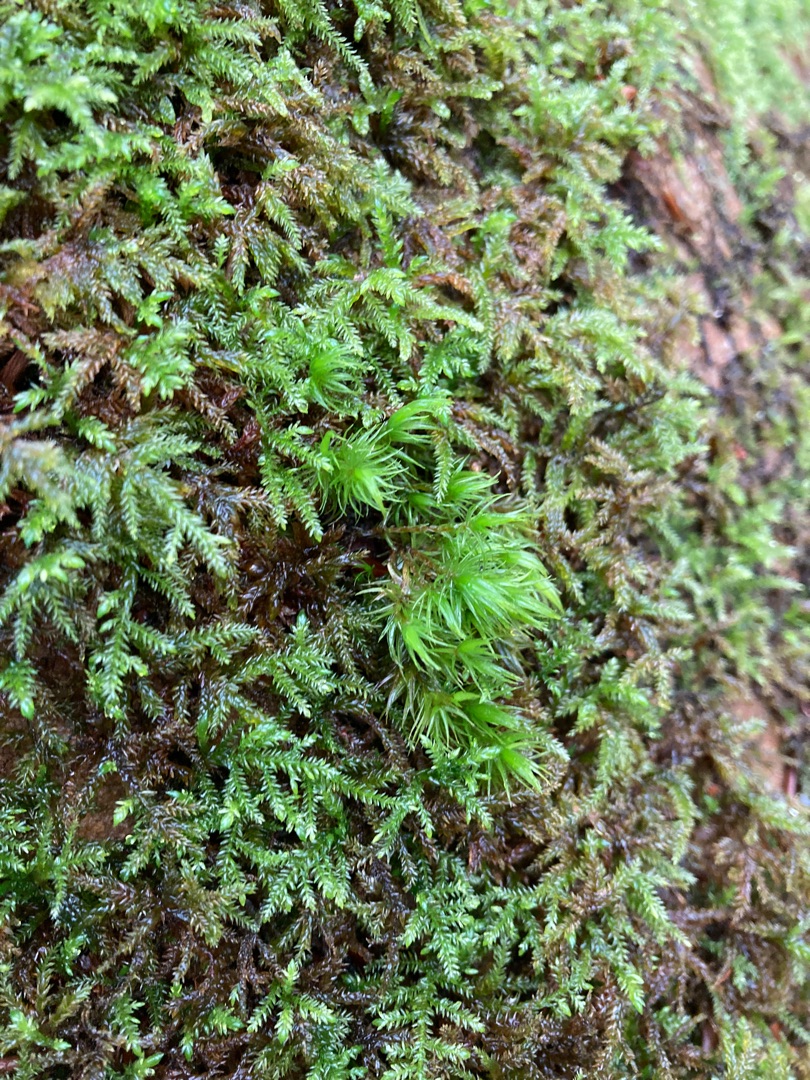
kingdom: Plantae
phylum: Bryophyta
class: Bryopsida
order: Dicranales
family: Dicranaceae
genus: Dicranum
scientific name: Dicranum scoparium
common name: Almindelig kløvtand
